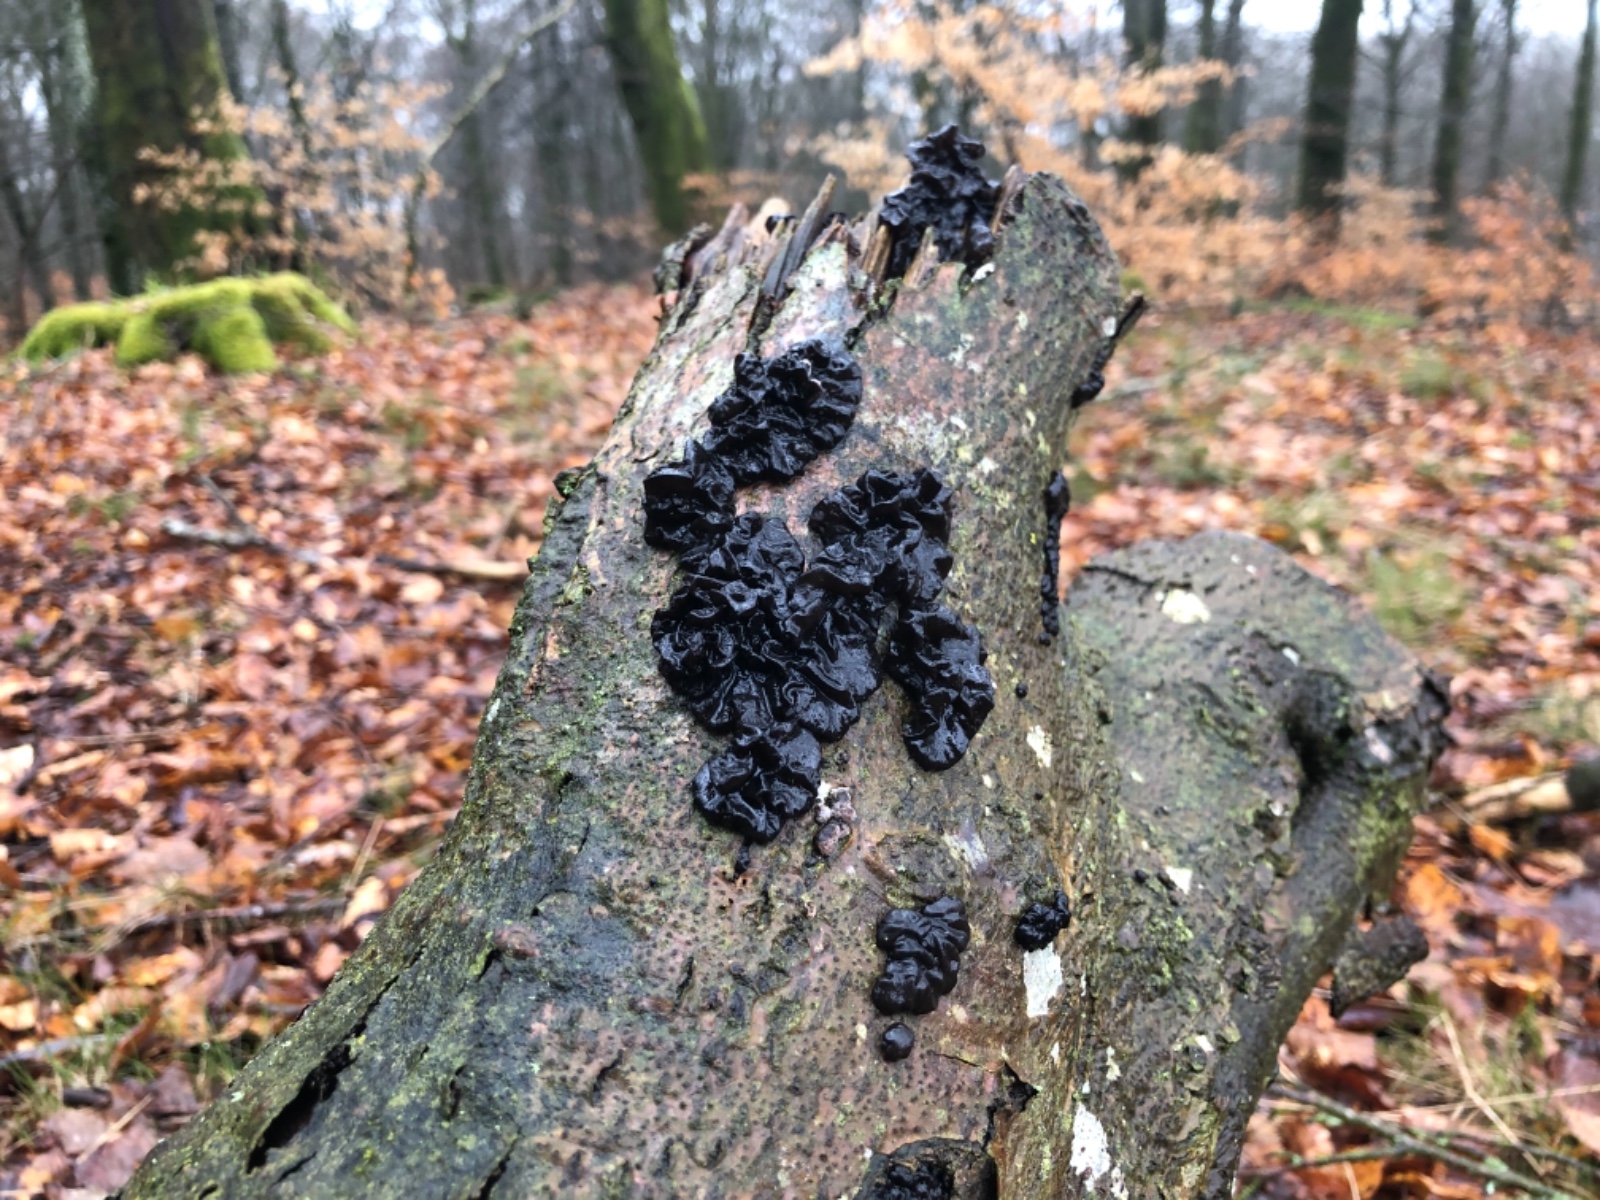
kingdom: Fungi
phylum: Basidiomycota
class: Agaricomycetes
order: Auriculariales
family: Auriculariaceae
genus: Exidia
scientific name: Exidia nigricans
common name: almindelig bævretop
